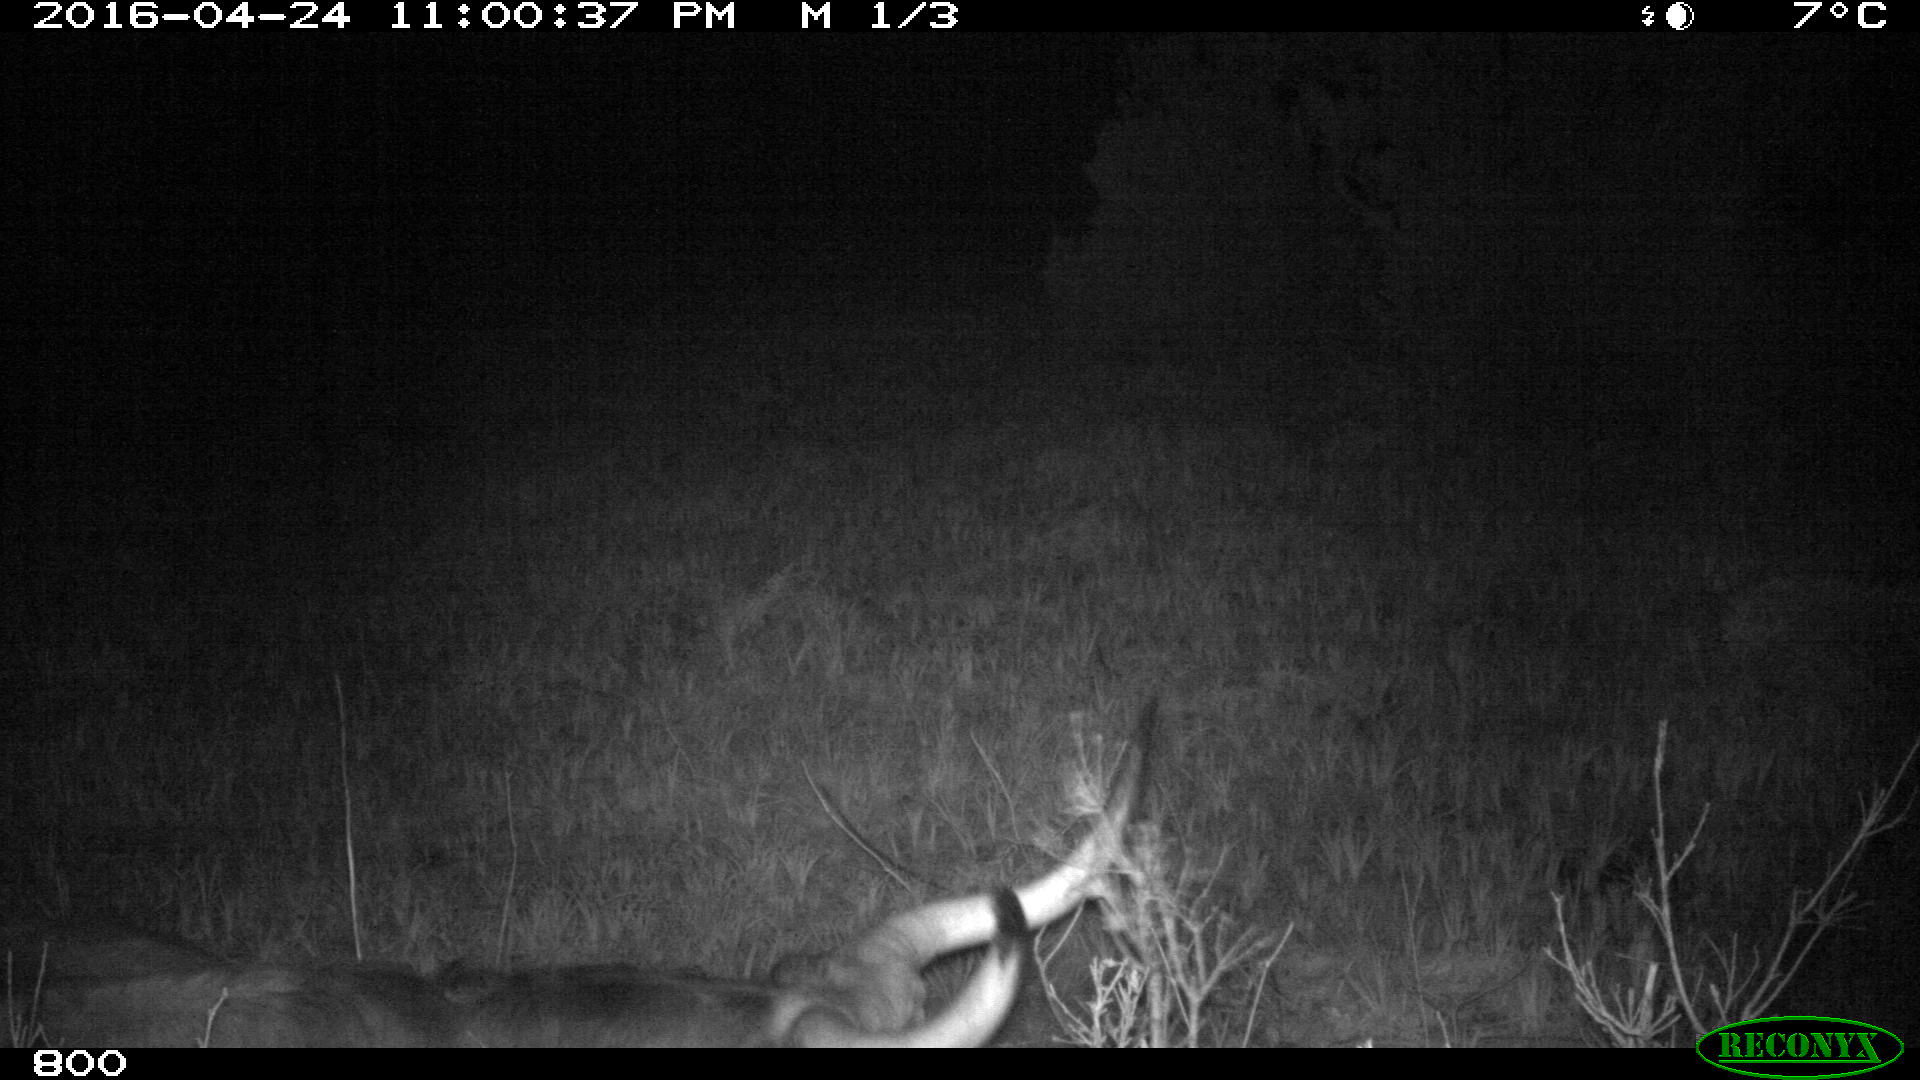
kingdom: Animalia
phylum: Chordata
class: Mammalia
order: Artiodactyla
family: Bovidae
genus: Bos
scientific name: Bos taurus
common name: Domesticated cattle
